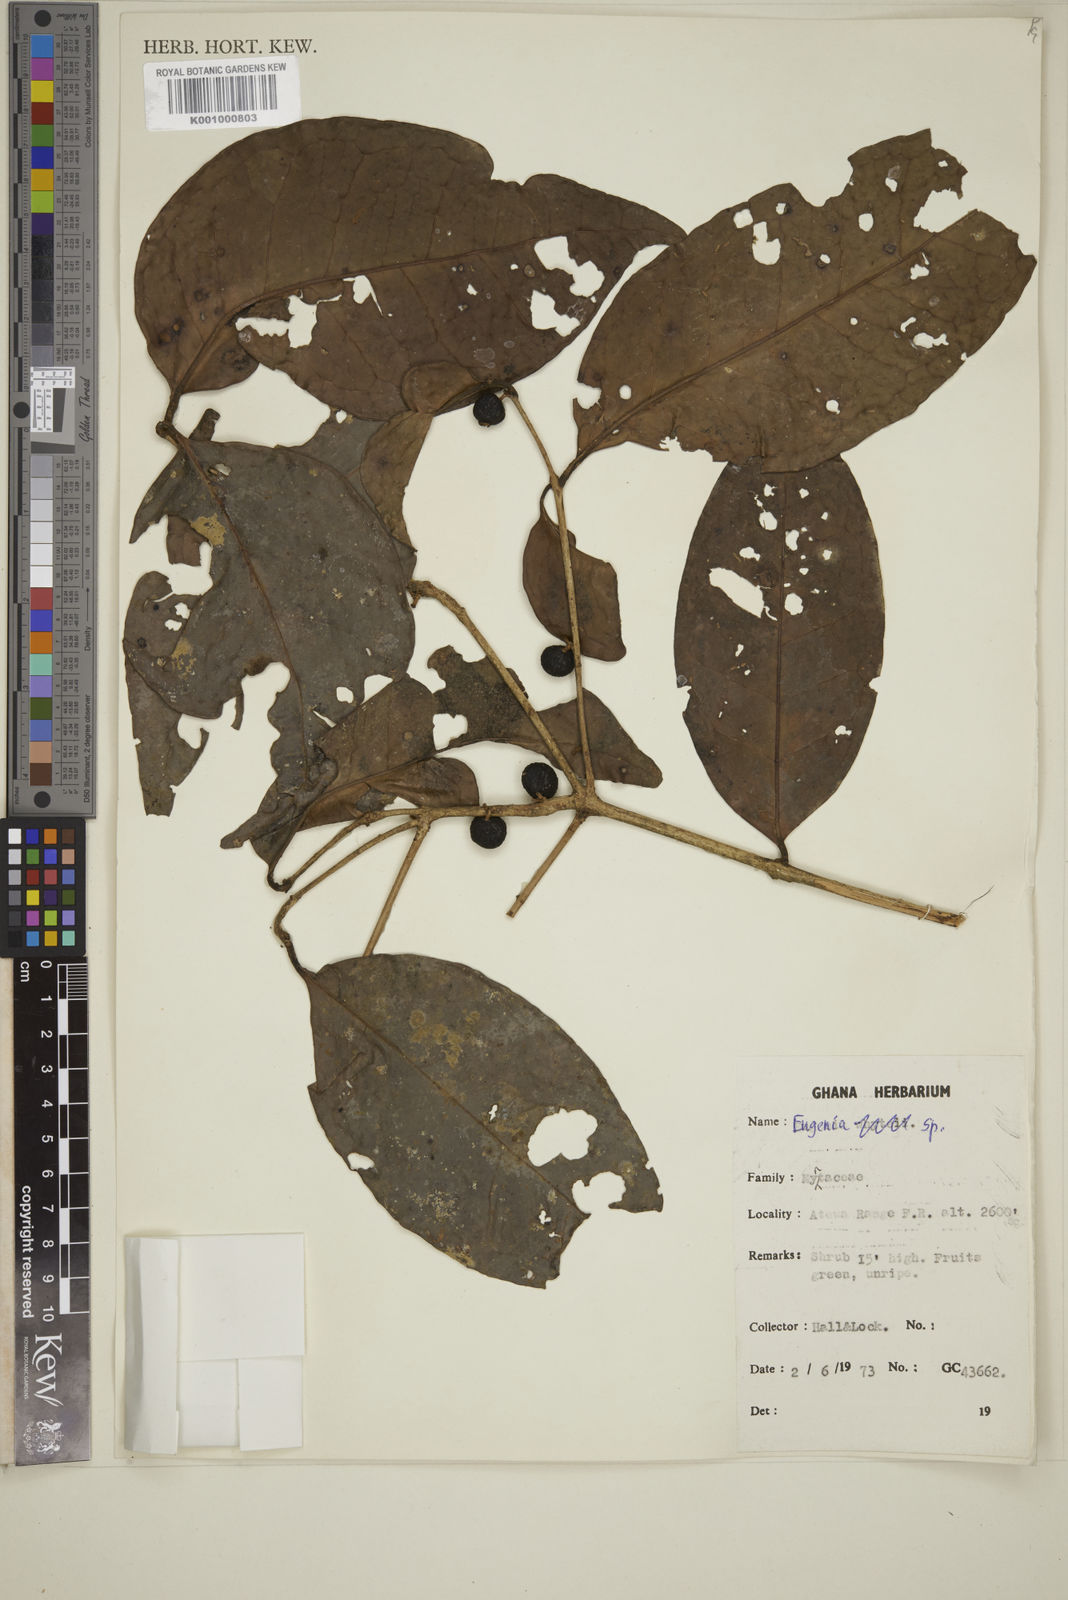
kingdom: Plantae
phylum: Tracheophyta
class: Magnoliopsida
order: Myrtales
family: Myrtaceae
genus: Eugenia
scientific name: Eugenia
